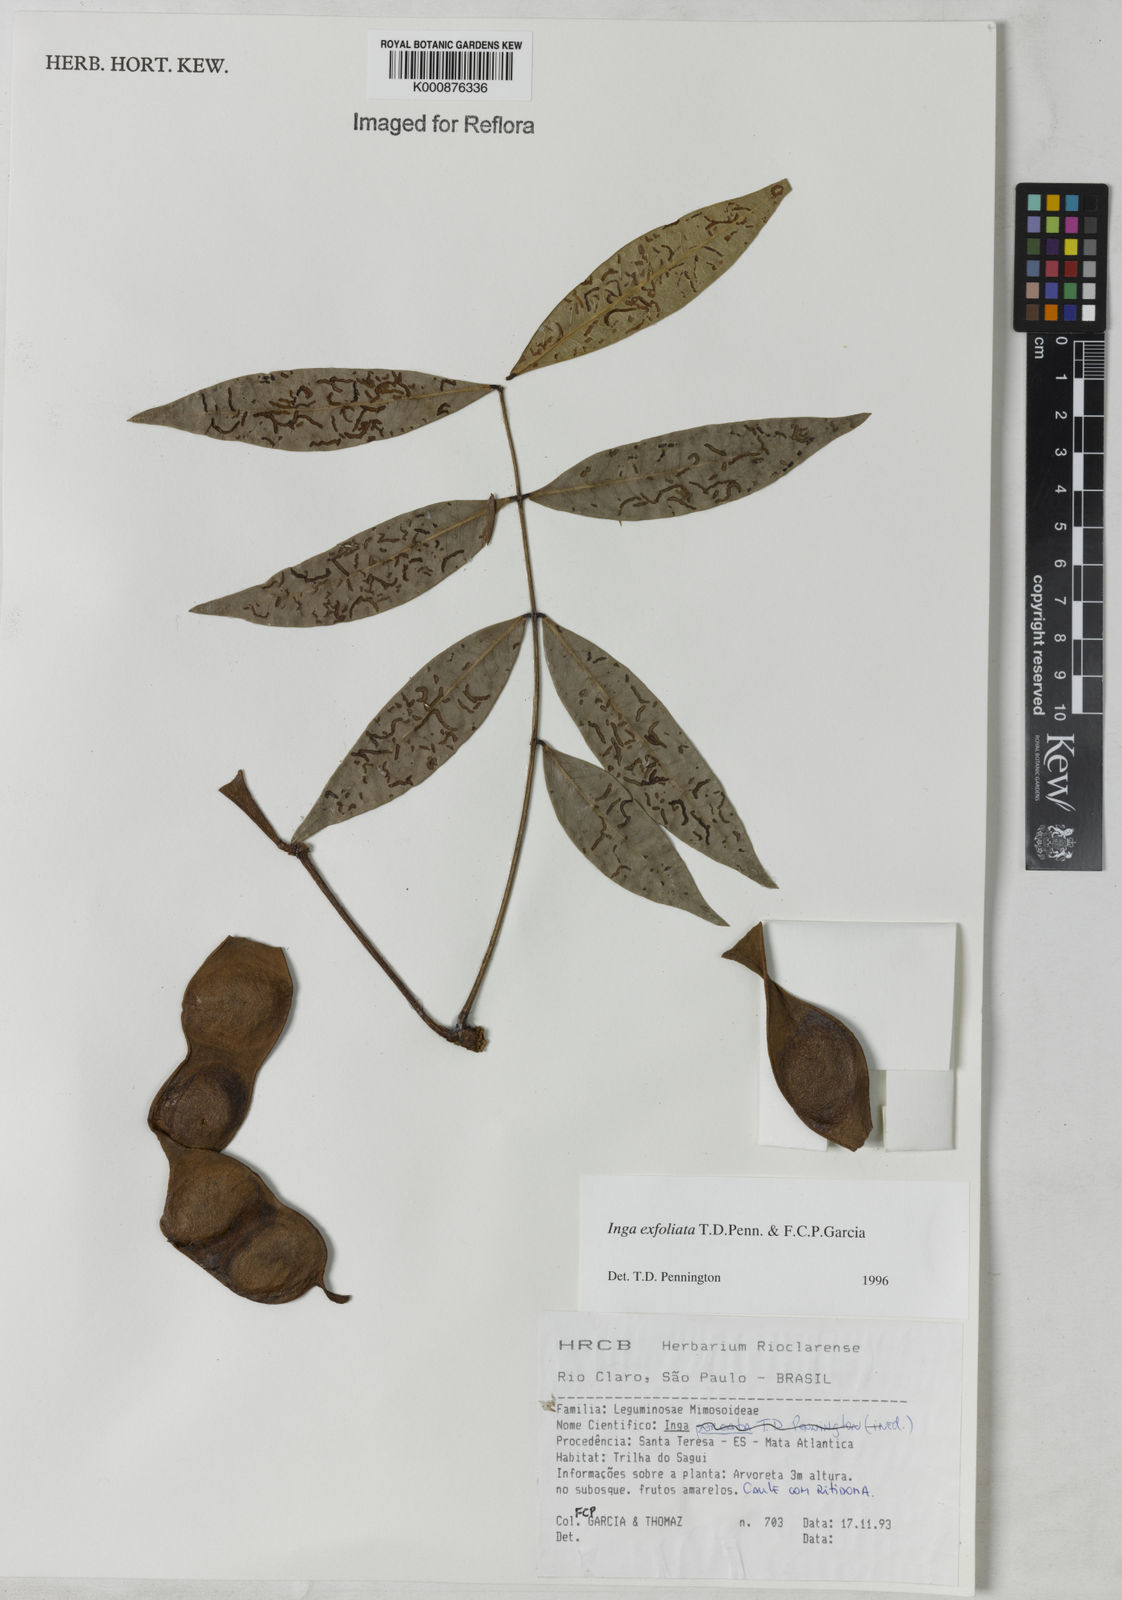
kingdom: Plantae
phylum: Tracheophyta
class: Magnoliopsida
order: Fabales
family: Fabaceae
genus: Inga
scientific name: Inga
